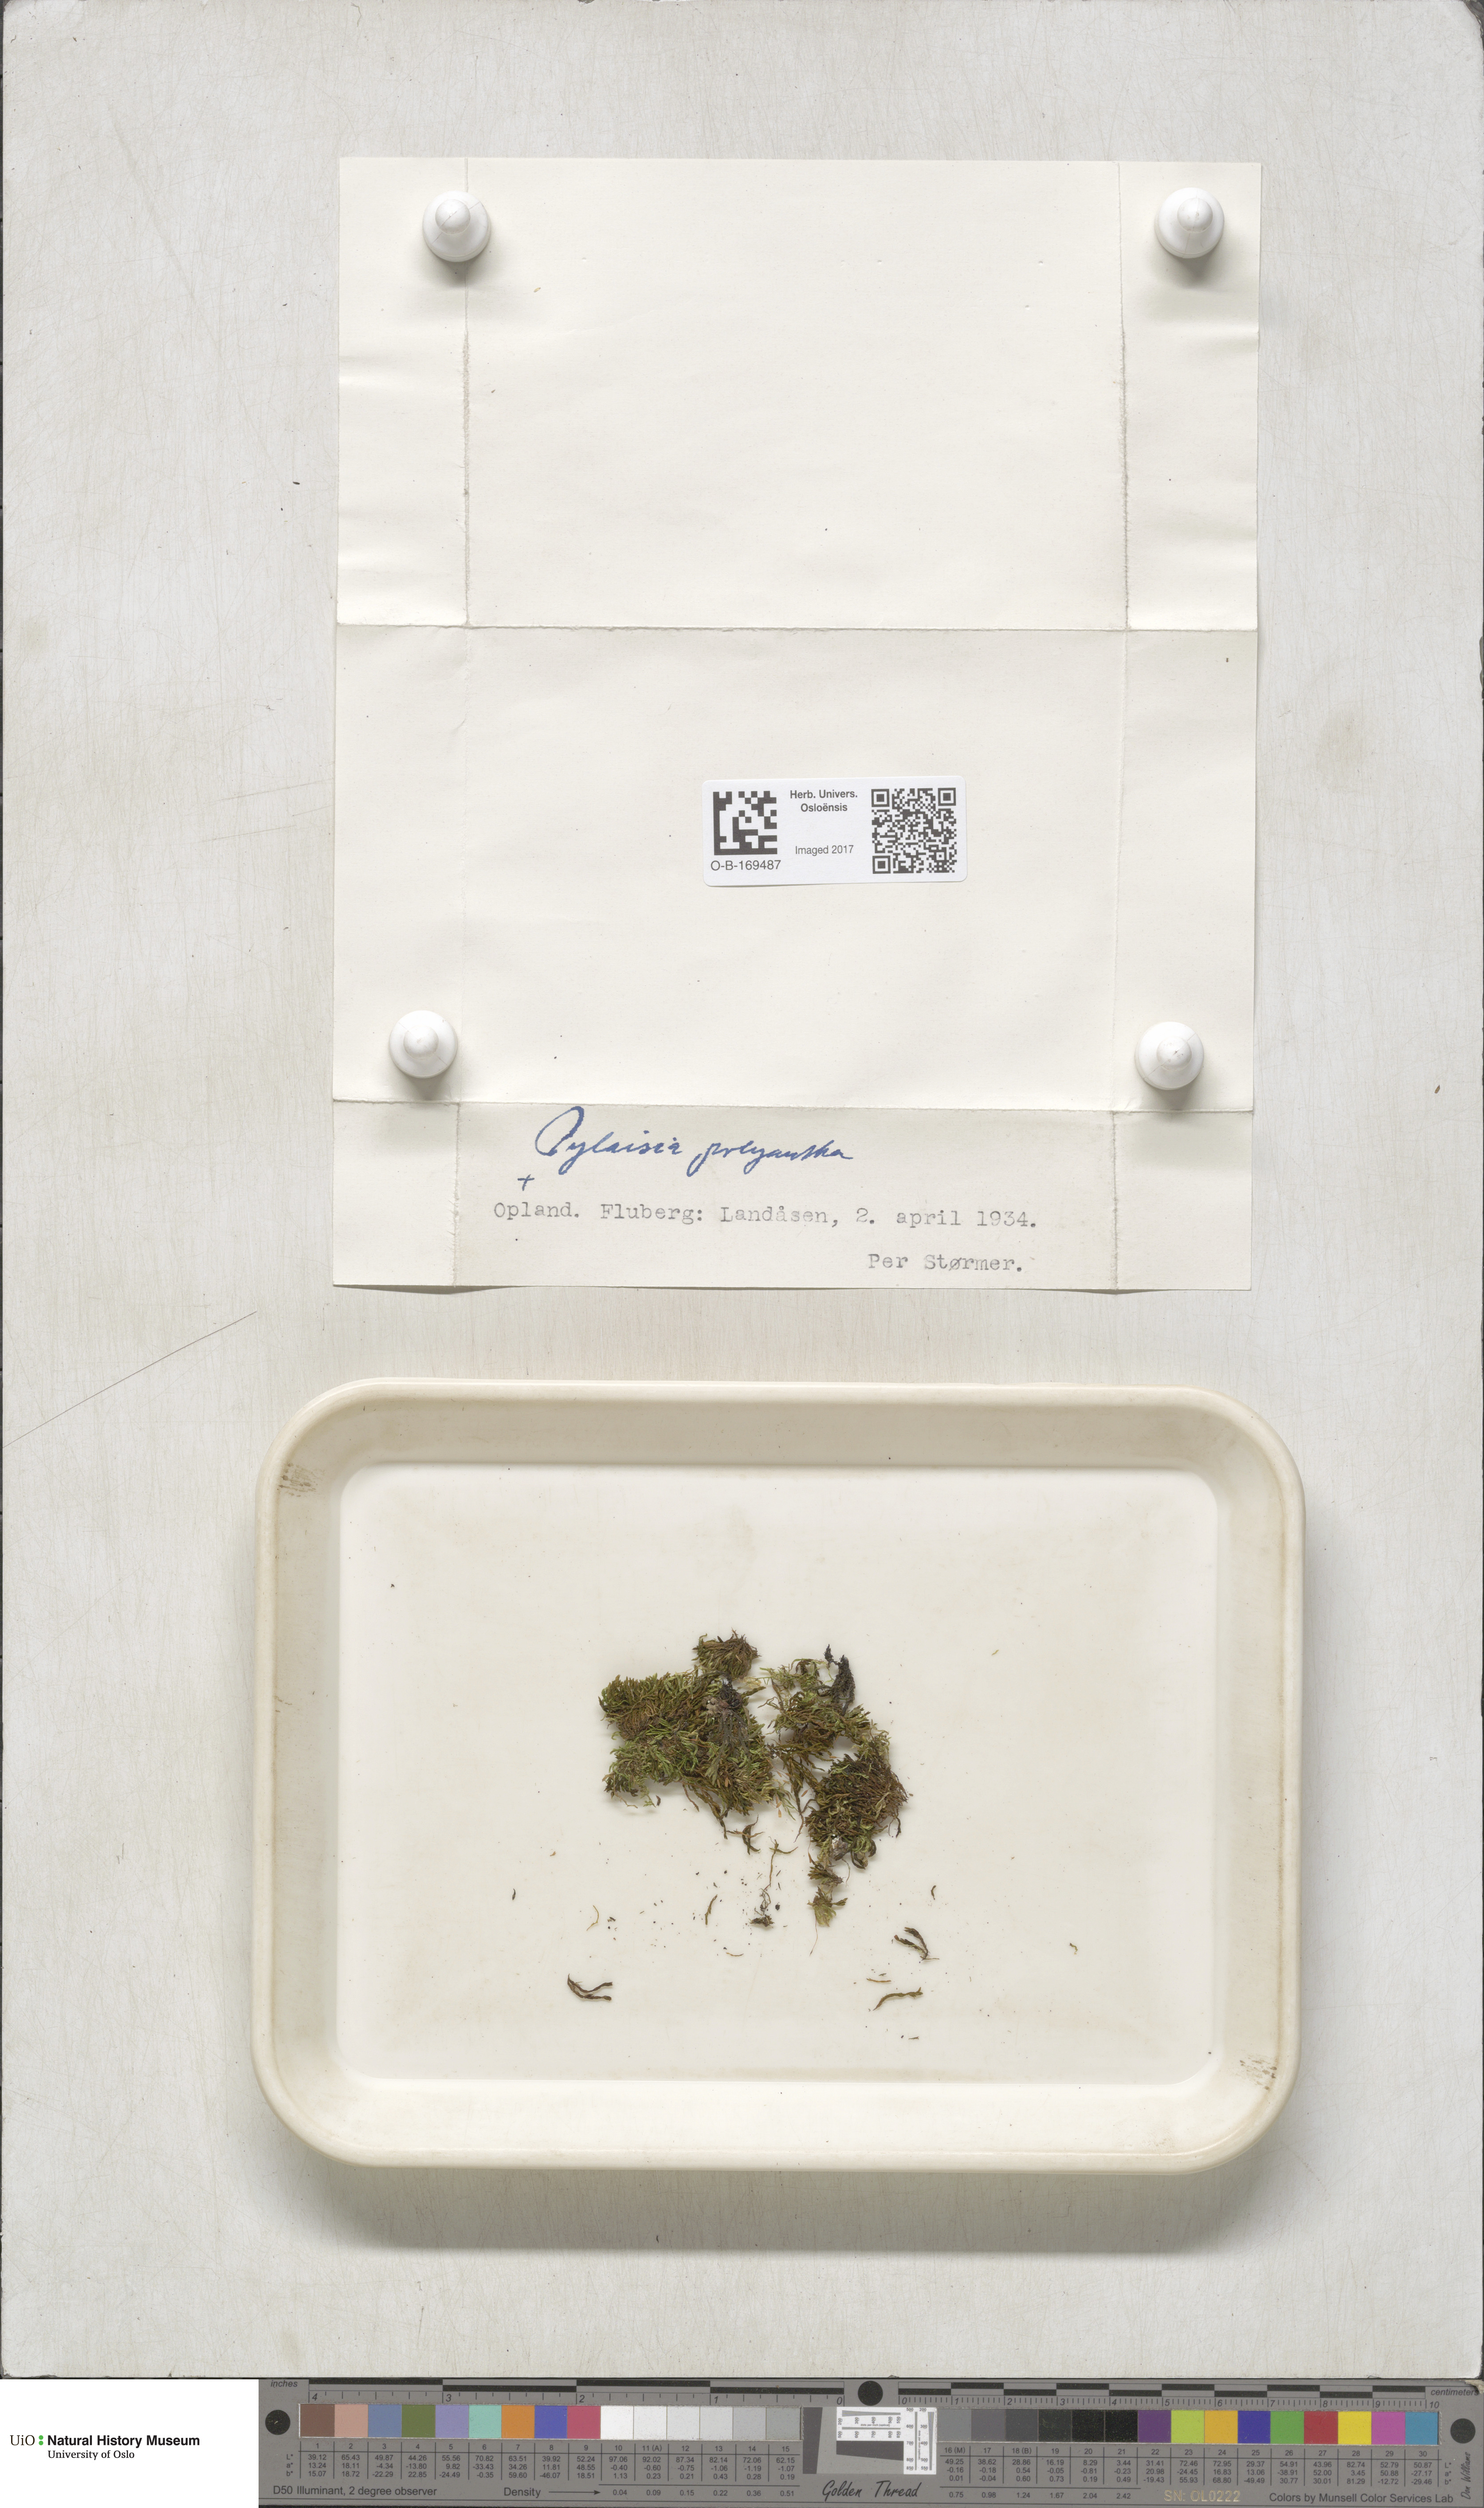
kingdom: Plantae
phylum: Bryophyta
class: Bryopsida
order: Hypnales
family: Pylaisiaceae
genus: Pylaisia
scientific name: Pylaisia polyantha
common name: Many-flowered leskea
